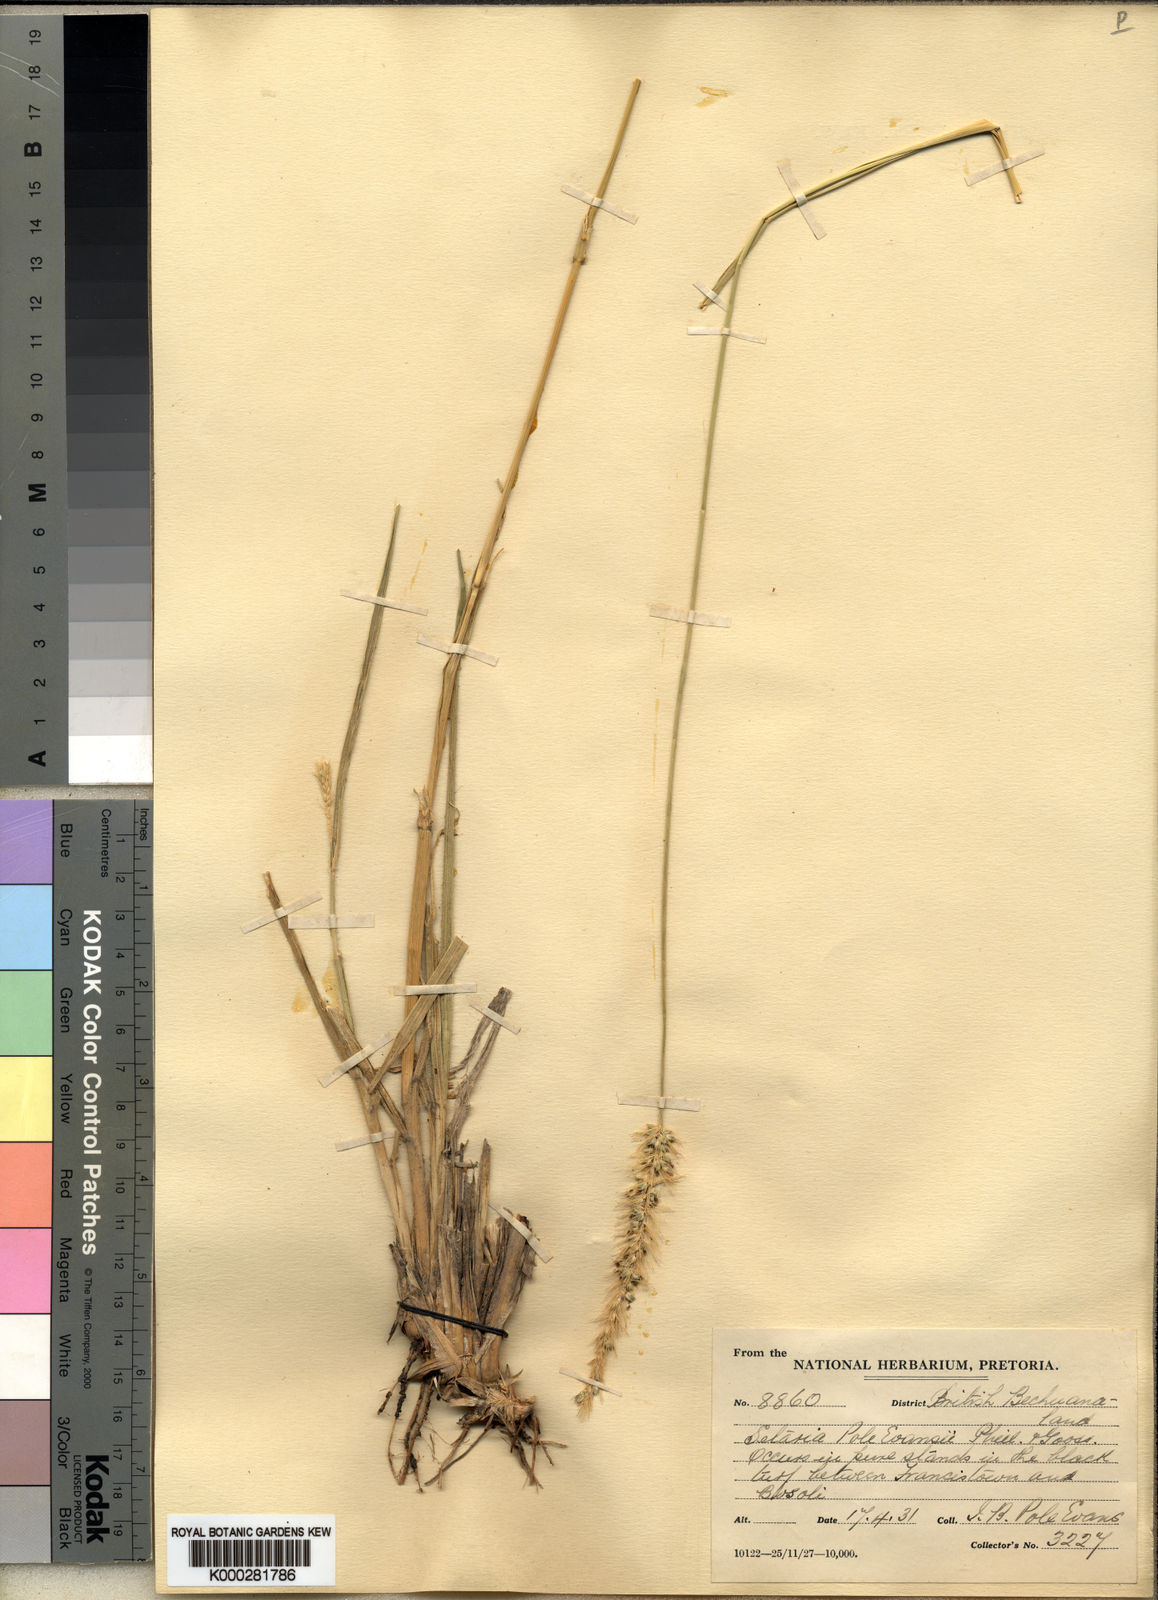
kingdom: Plantae
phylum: Tracheophyta
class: Liliopsida
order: Poales
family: Poaceae
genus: Setaria
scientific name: Setaria incrassata
